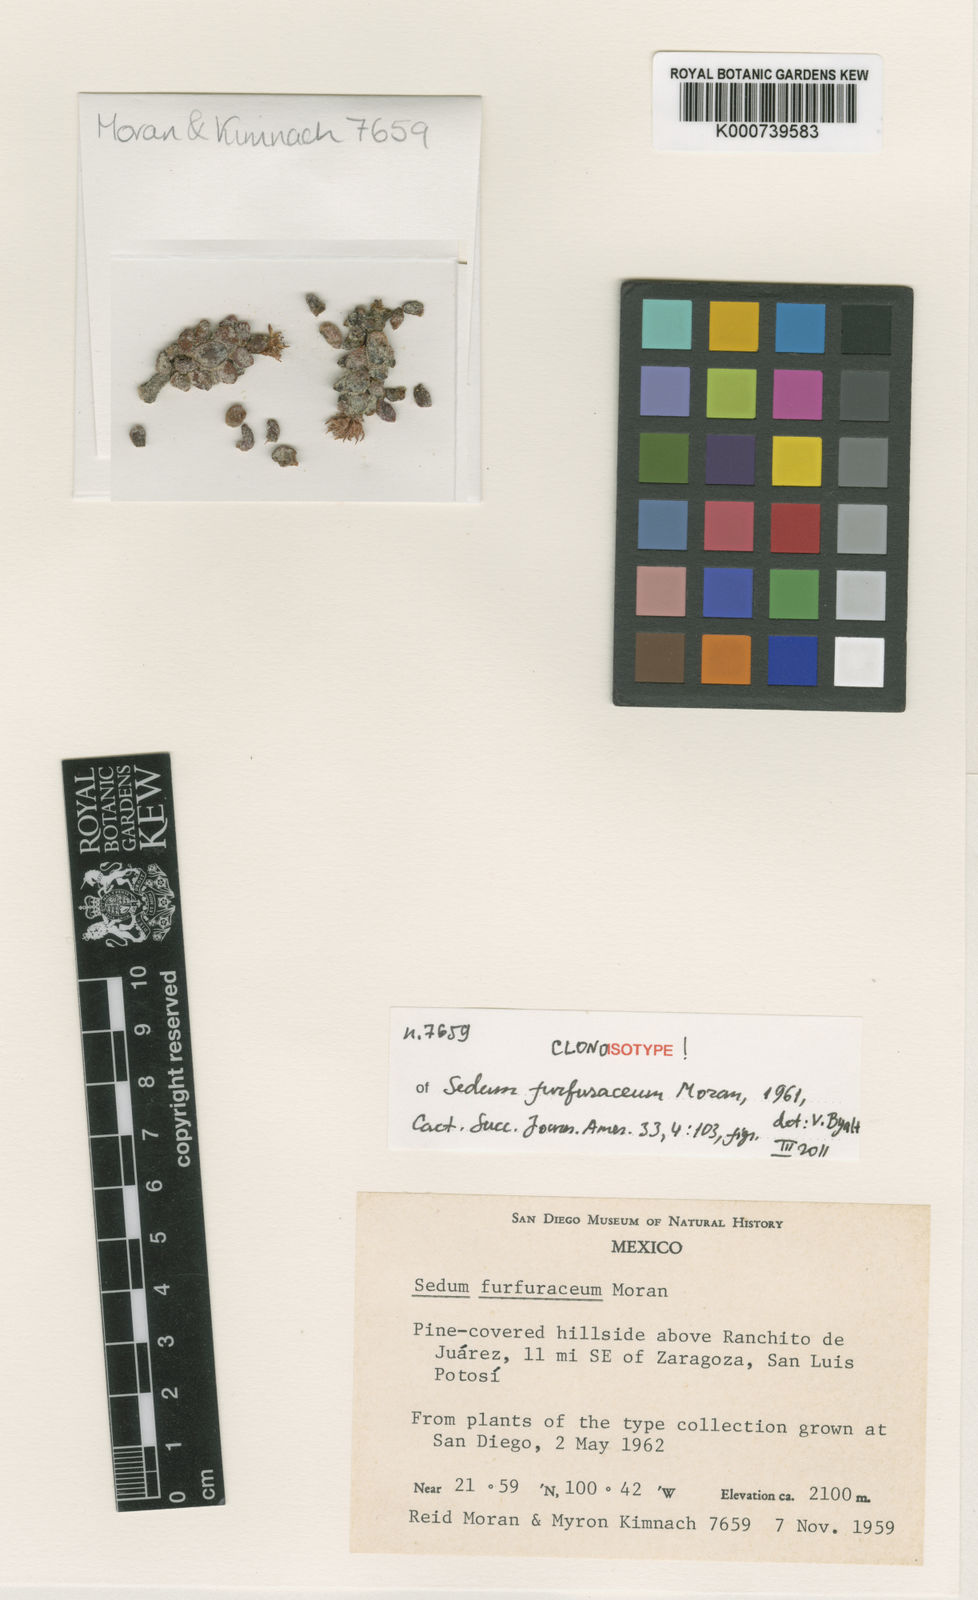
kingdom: Plantae
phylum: Tracheophyta
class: Magnoliopsida
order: Saxifragales
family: Crassulaceae
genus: Sedum
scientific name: Sedum furfuraceum
